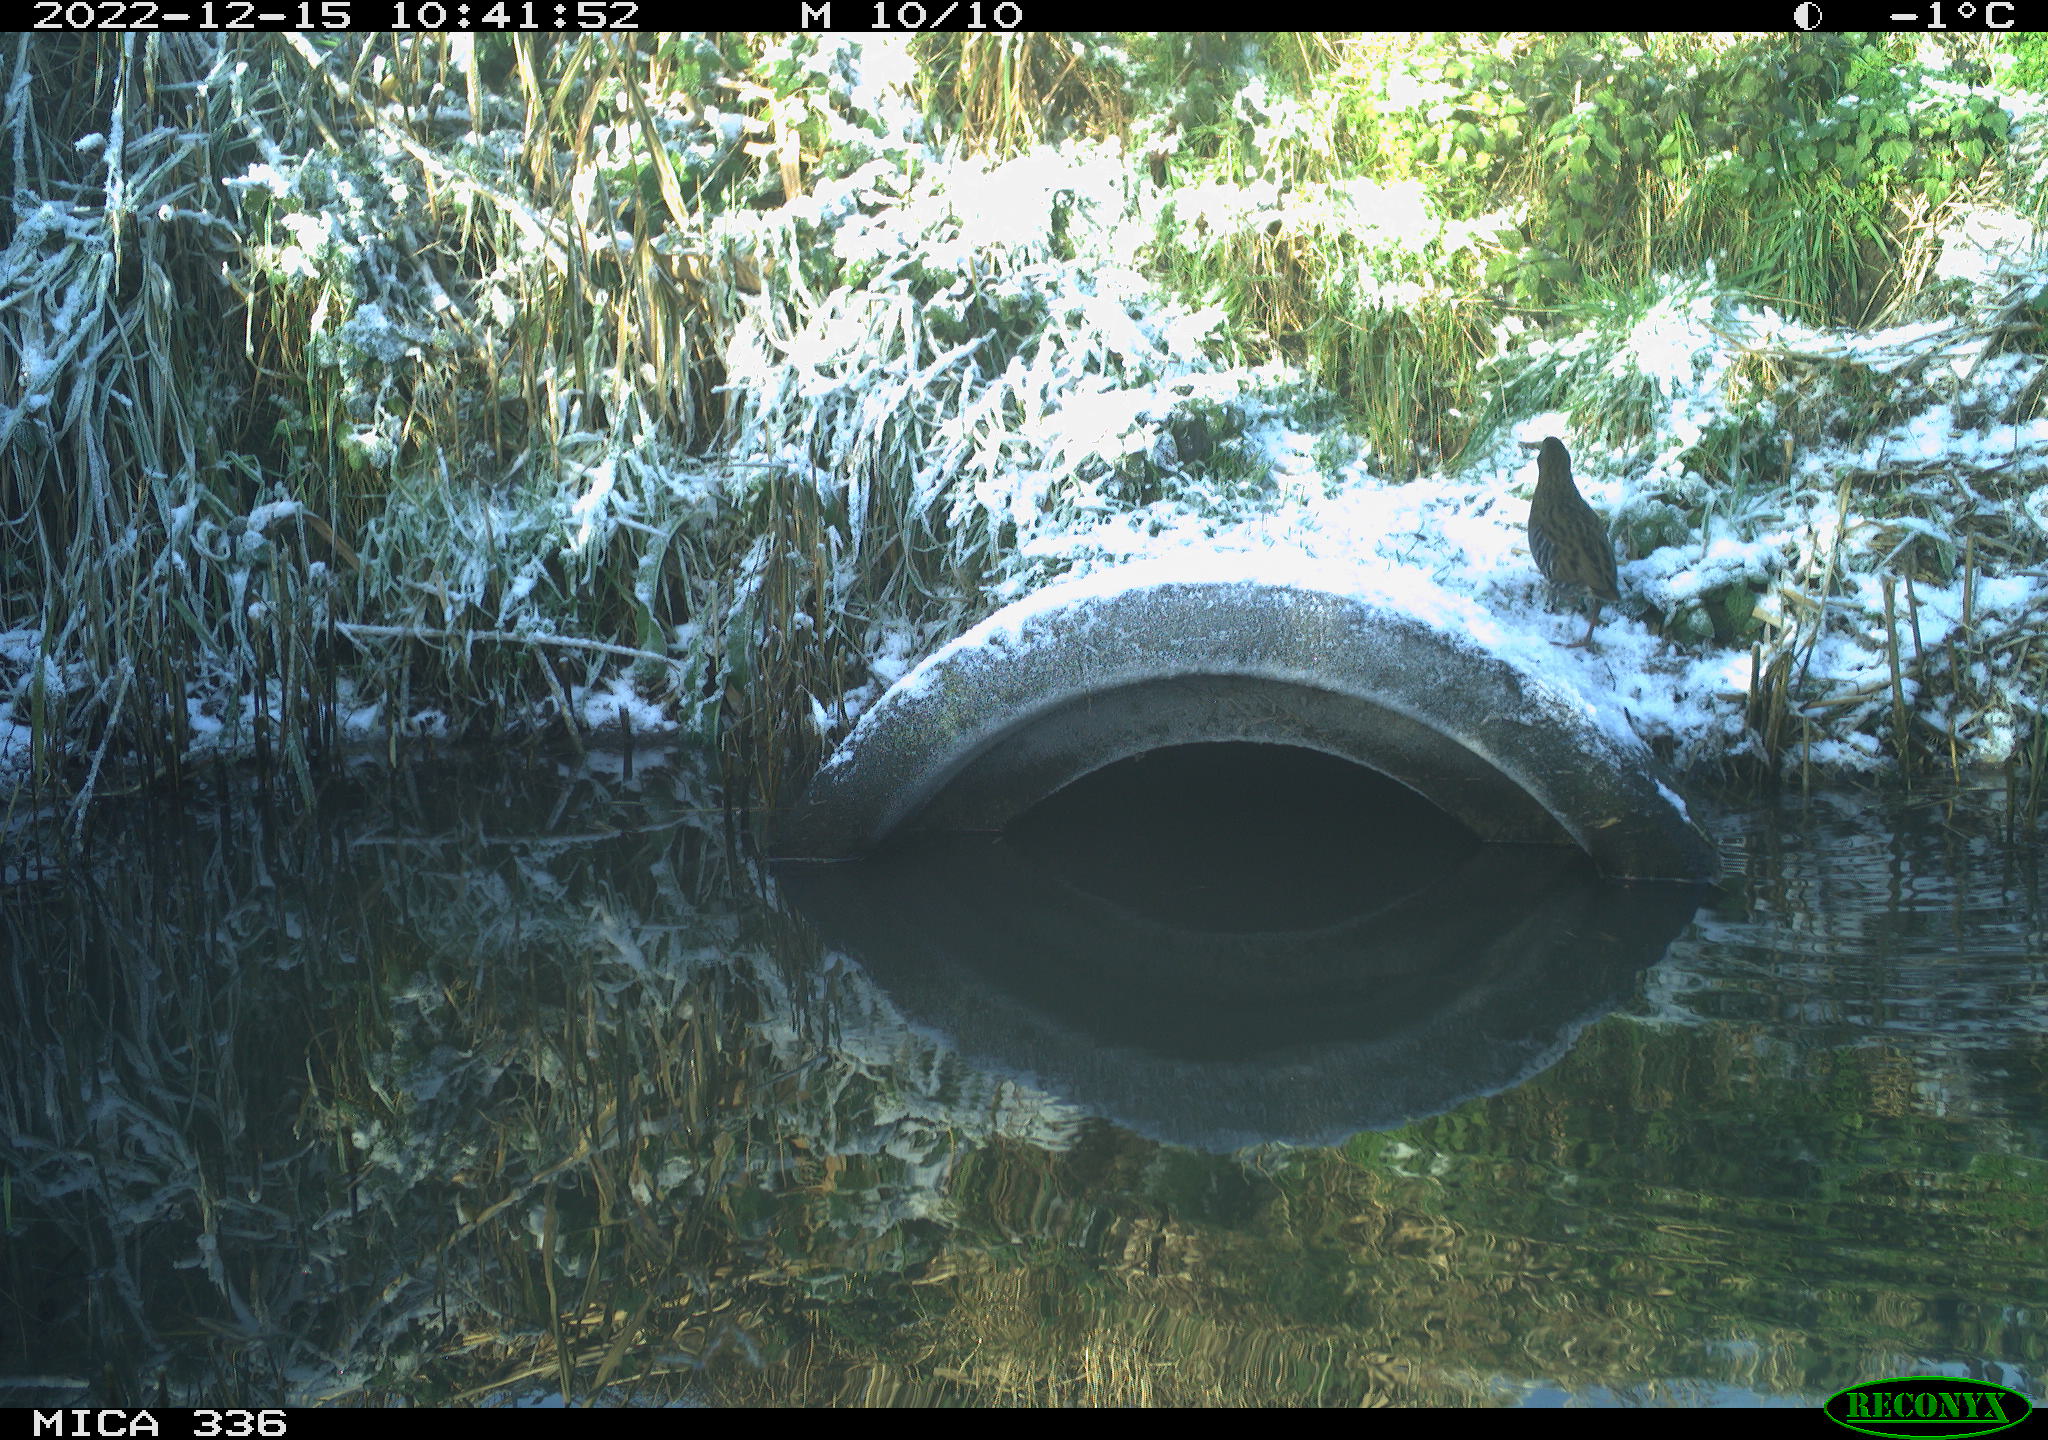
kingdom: Animalia
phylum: Chordata
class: Aves
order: Gruiformes
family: Rallidae
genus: Rallus
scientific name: Rallus aquaticus
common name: Water rail
